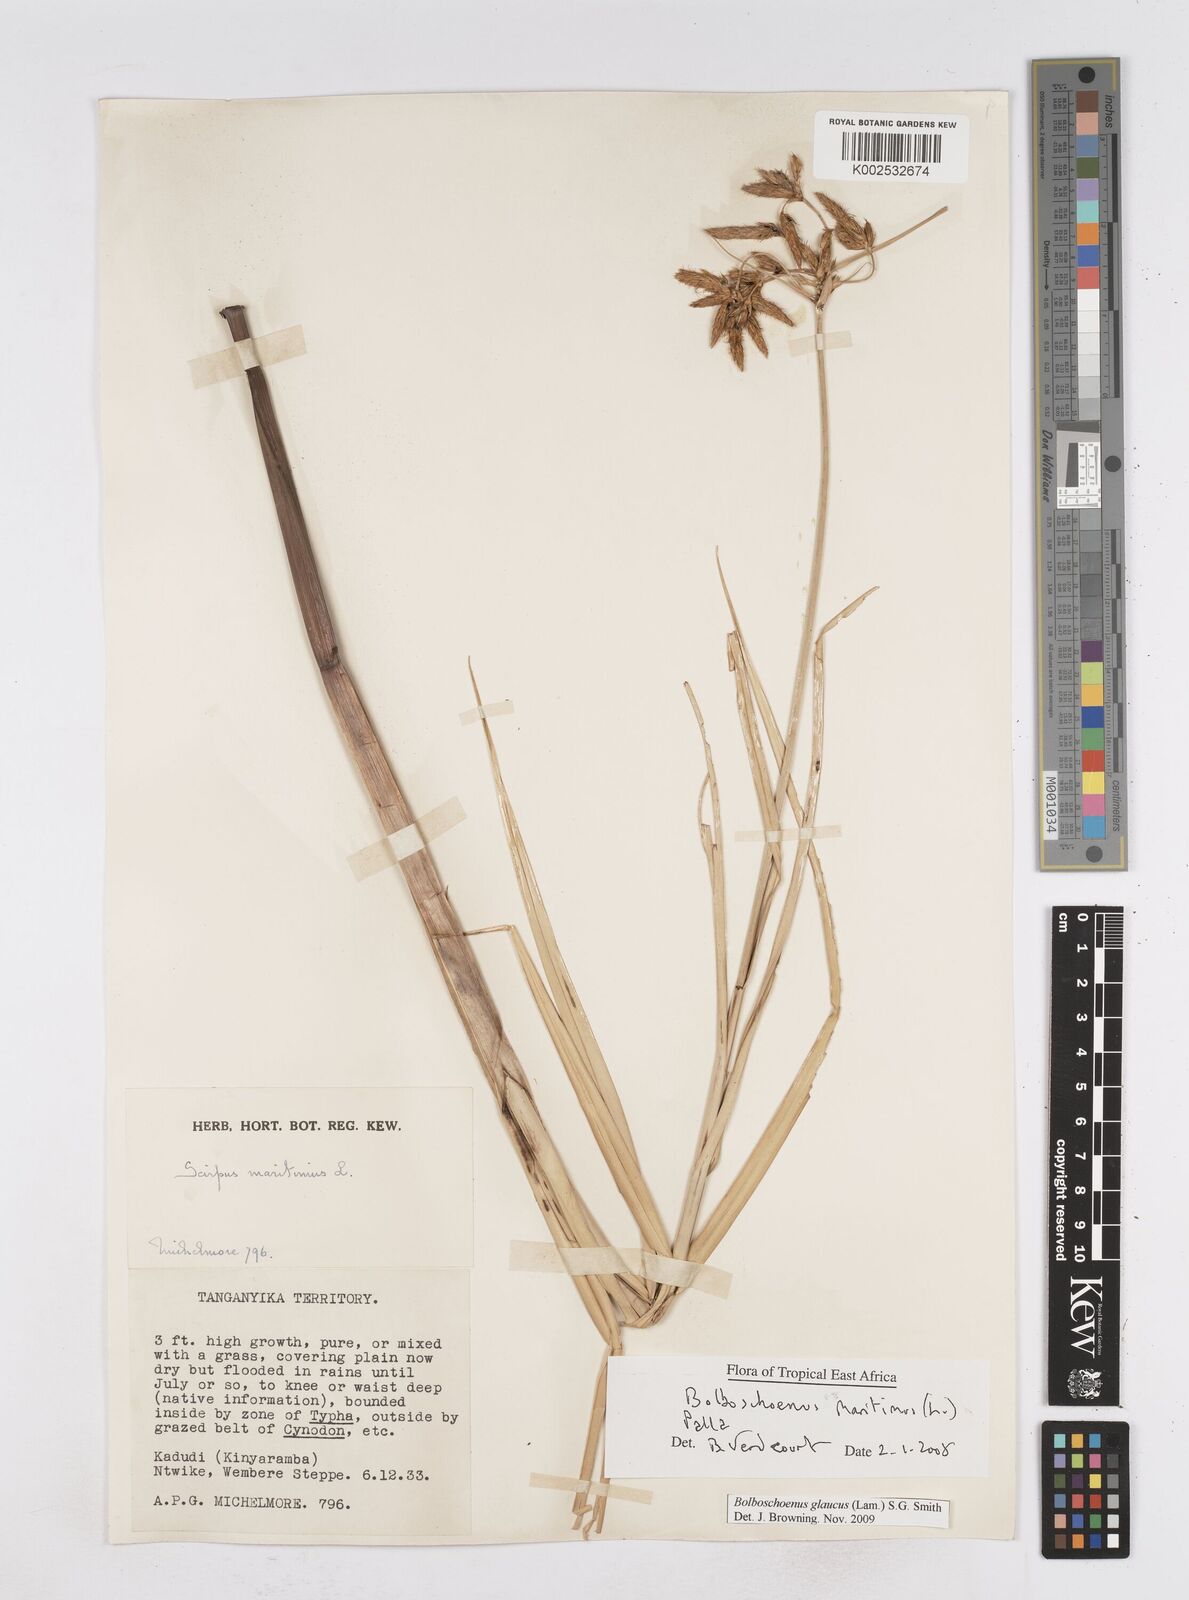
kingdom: Plantae
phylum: Tracheophyta
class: Liliopsida
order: Poales
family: Cyperaceae
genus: Bolboschoenus
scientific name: Bolboschoenus glaucus
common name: Tuberous bulrush
